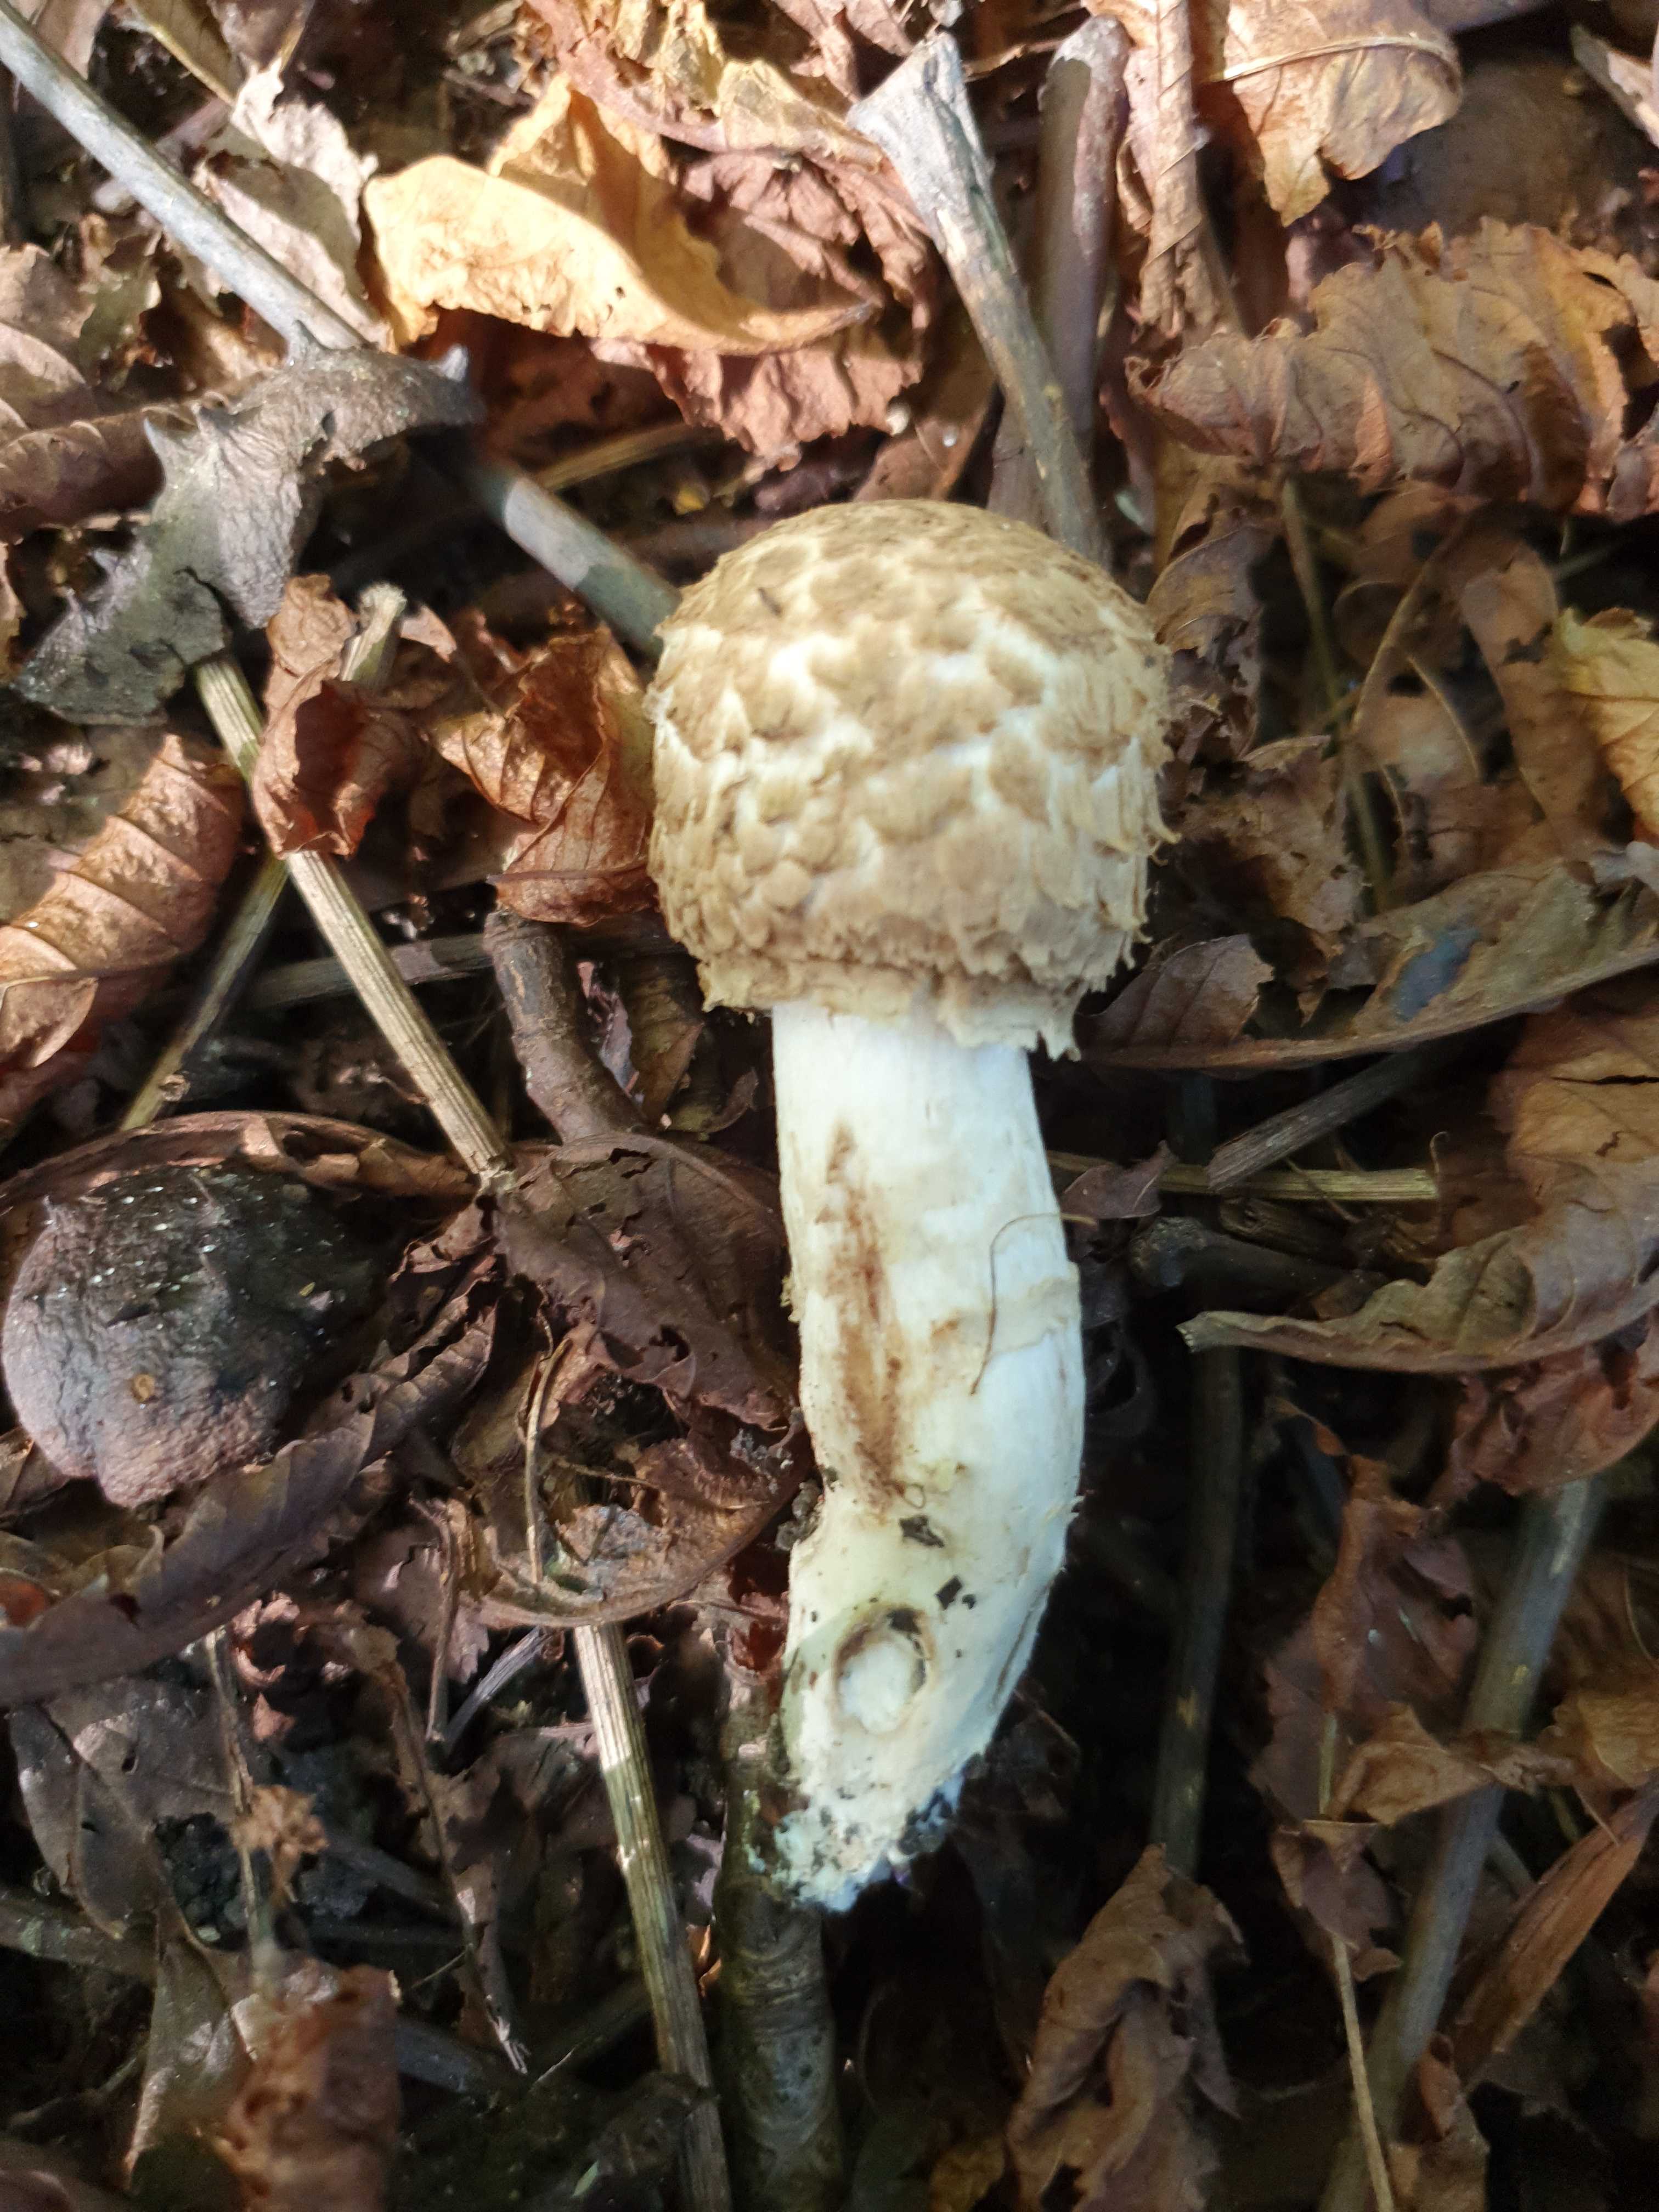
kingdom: Fungi
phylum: Basidiomycota
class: Agaricomycetes
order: Agaricales
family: Agaricaceae
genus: Agaricus
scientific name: Agaricus bohusii
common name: krumskællet champignon
